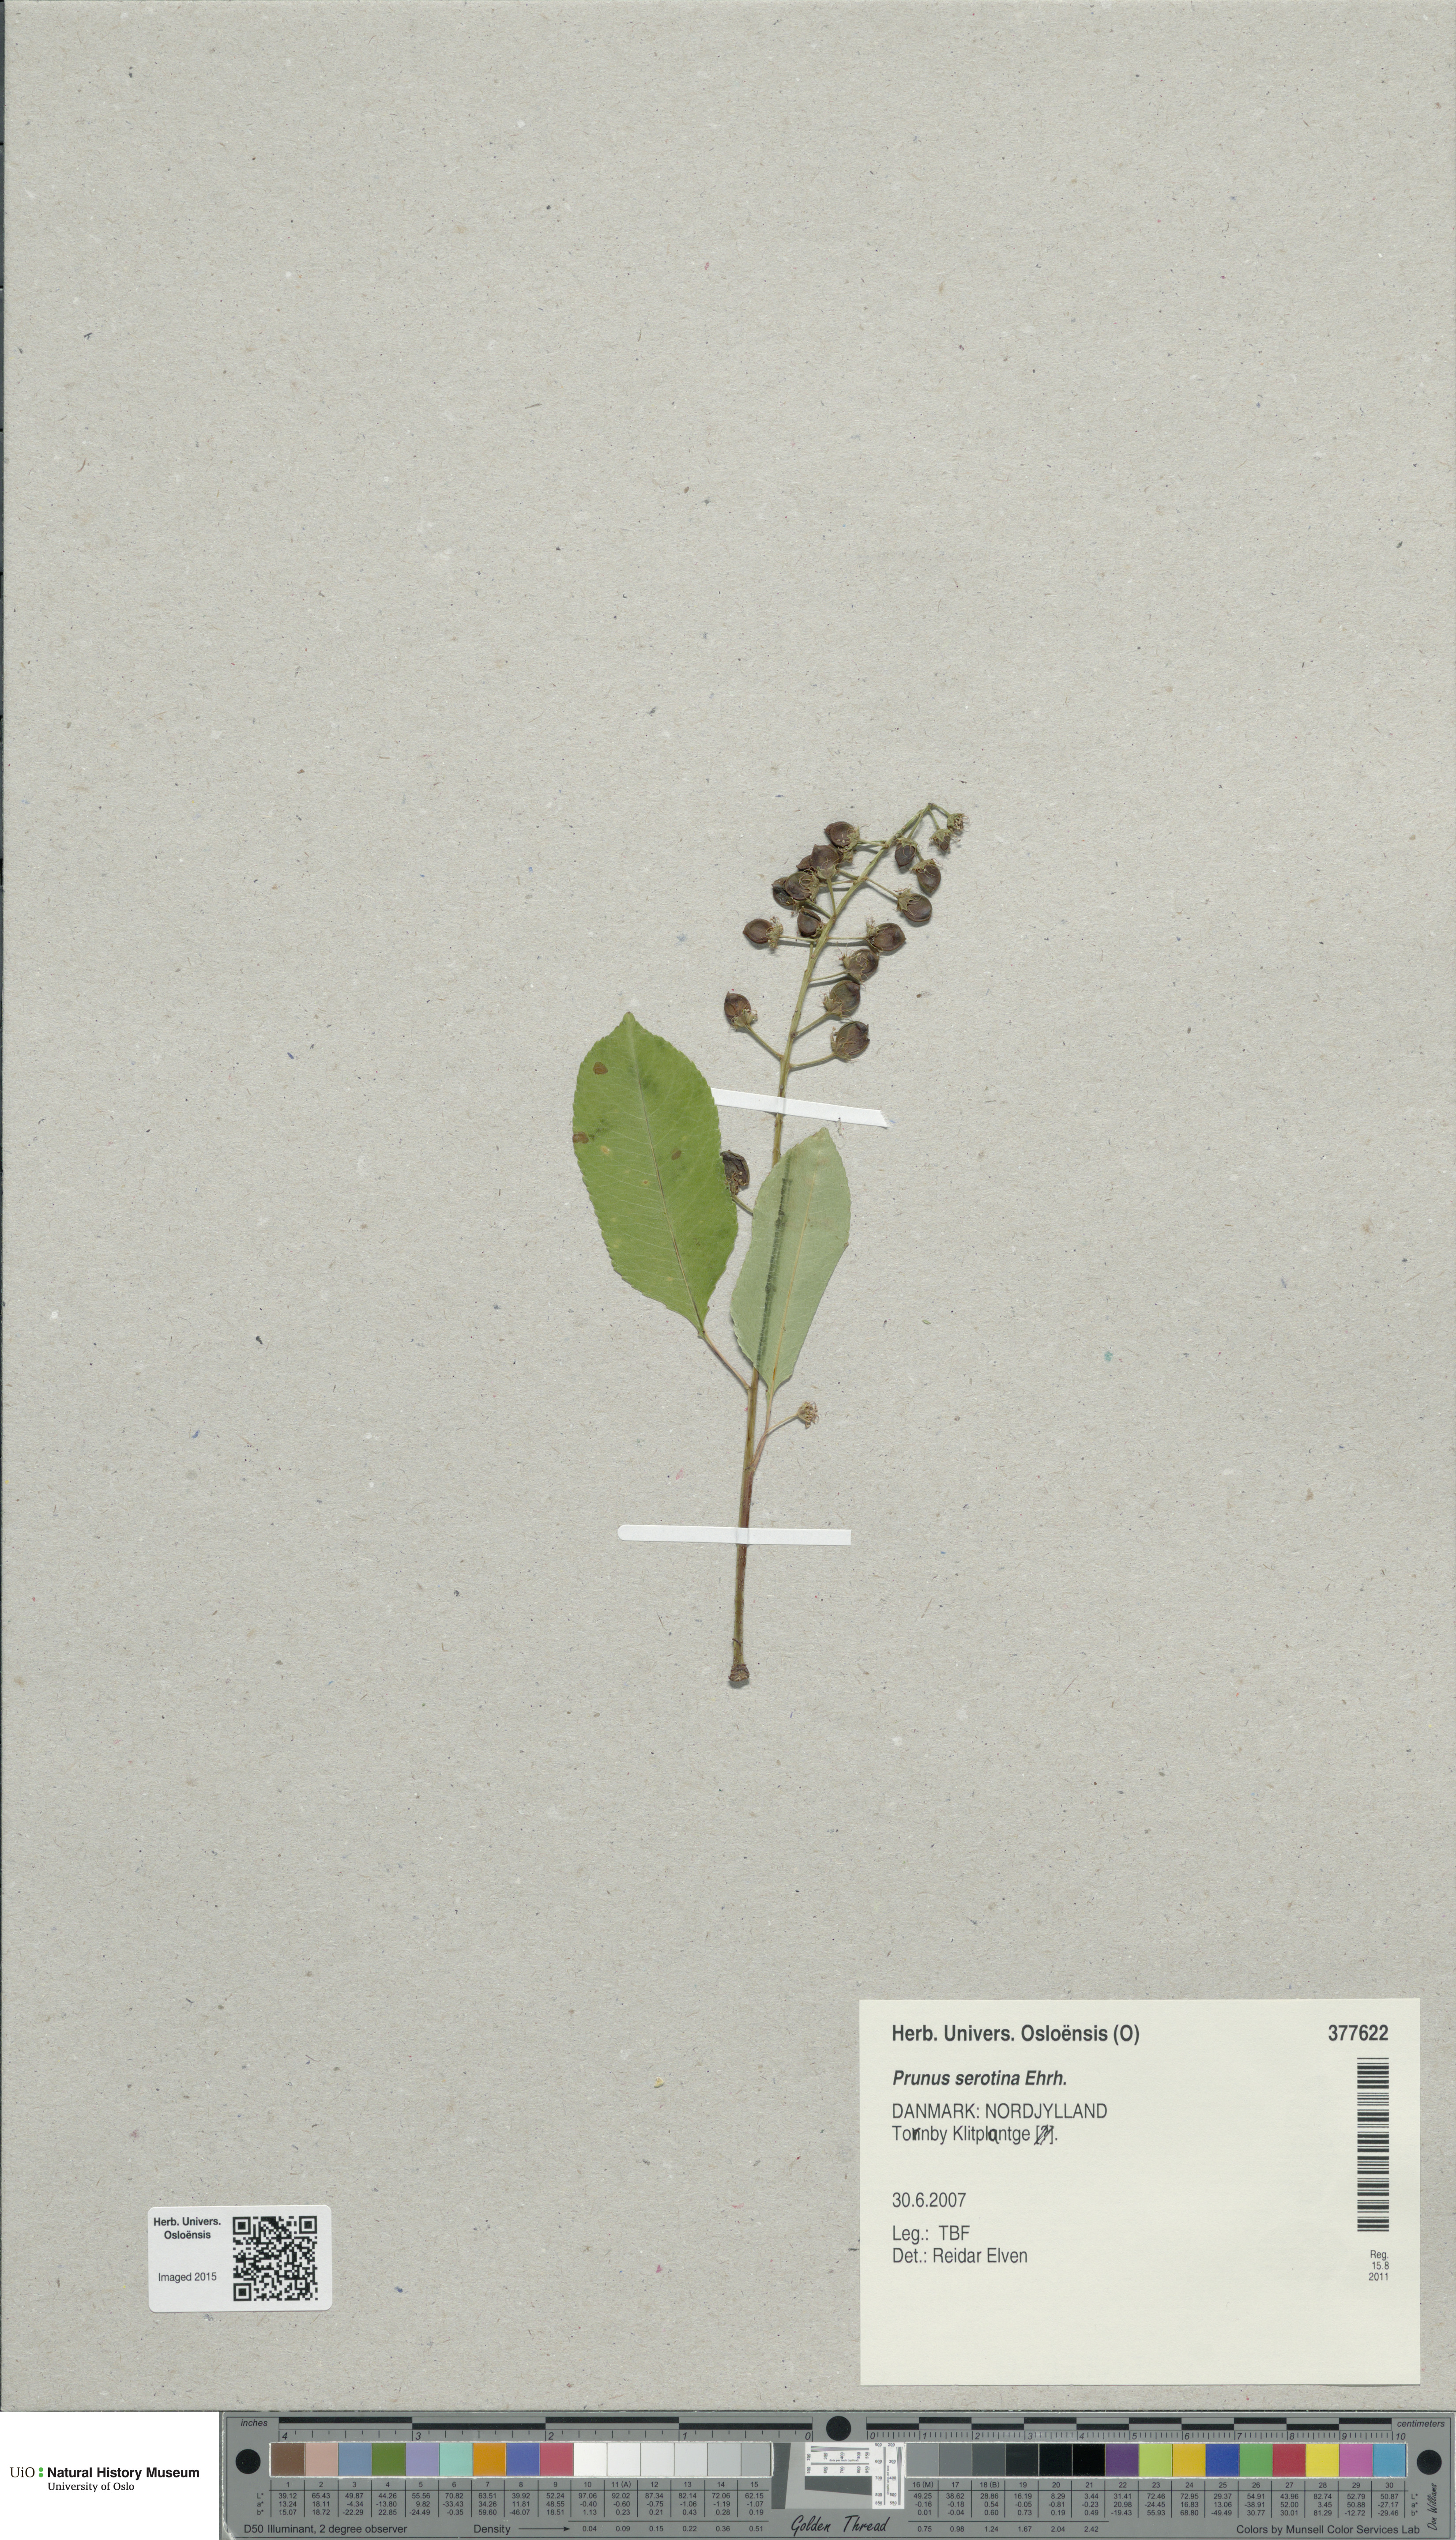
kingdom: Plantae
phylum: Tracheophyta
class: Magnoliopsida
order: Rosales
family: Rosaceae
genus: Prunus
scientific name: Prunus serotina
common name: Black cherry
